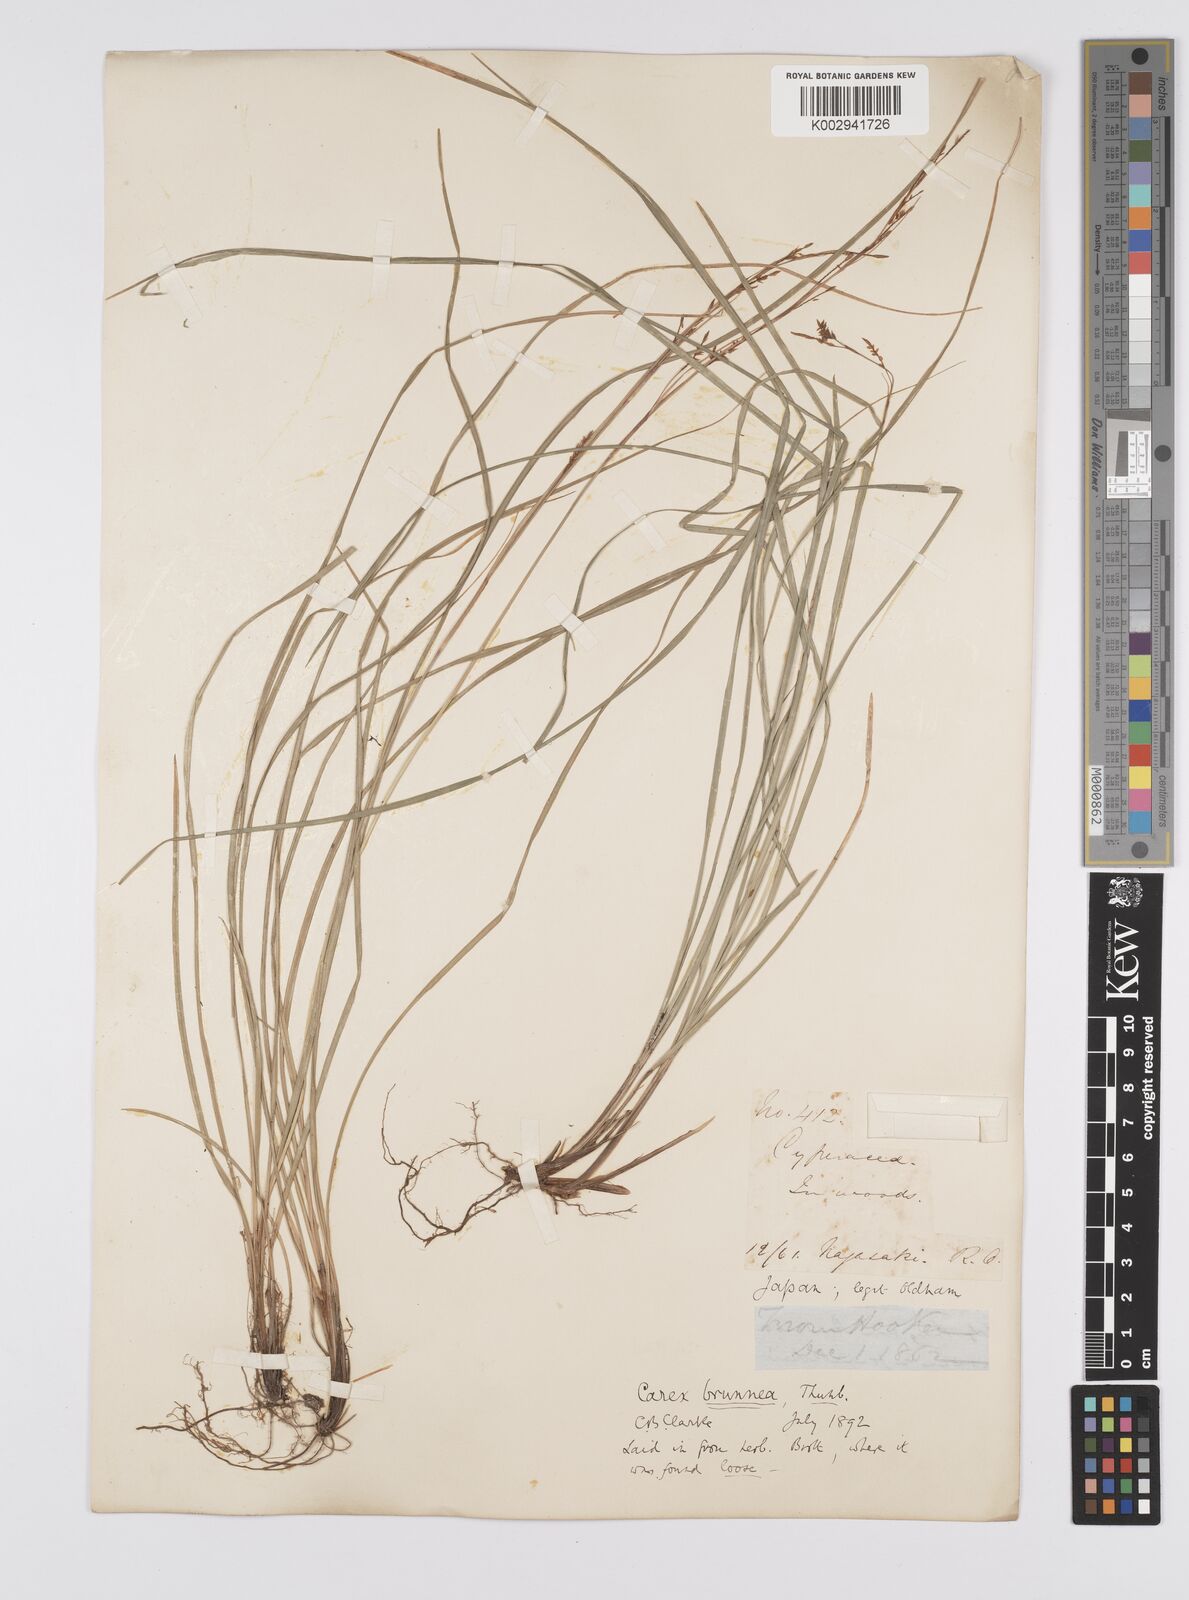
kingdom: Plantae
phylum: Tracheophyta
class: Liliopsida
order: Poales
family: Cyperaceae
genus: Carex
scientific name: Carex brunnea
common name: Greater brown sedge
